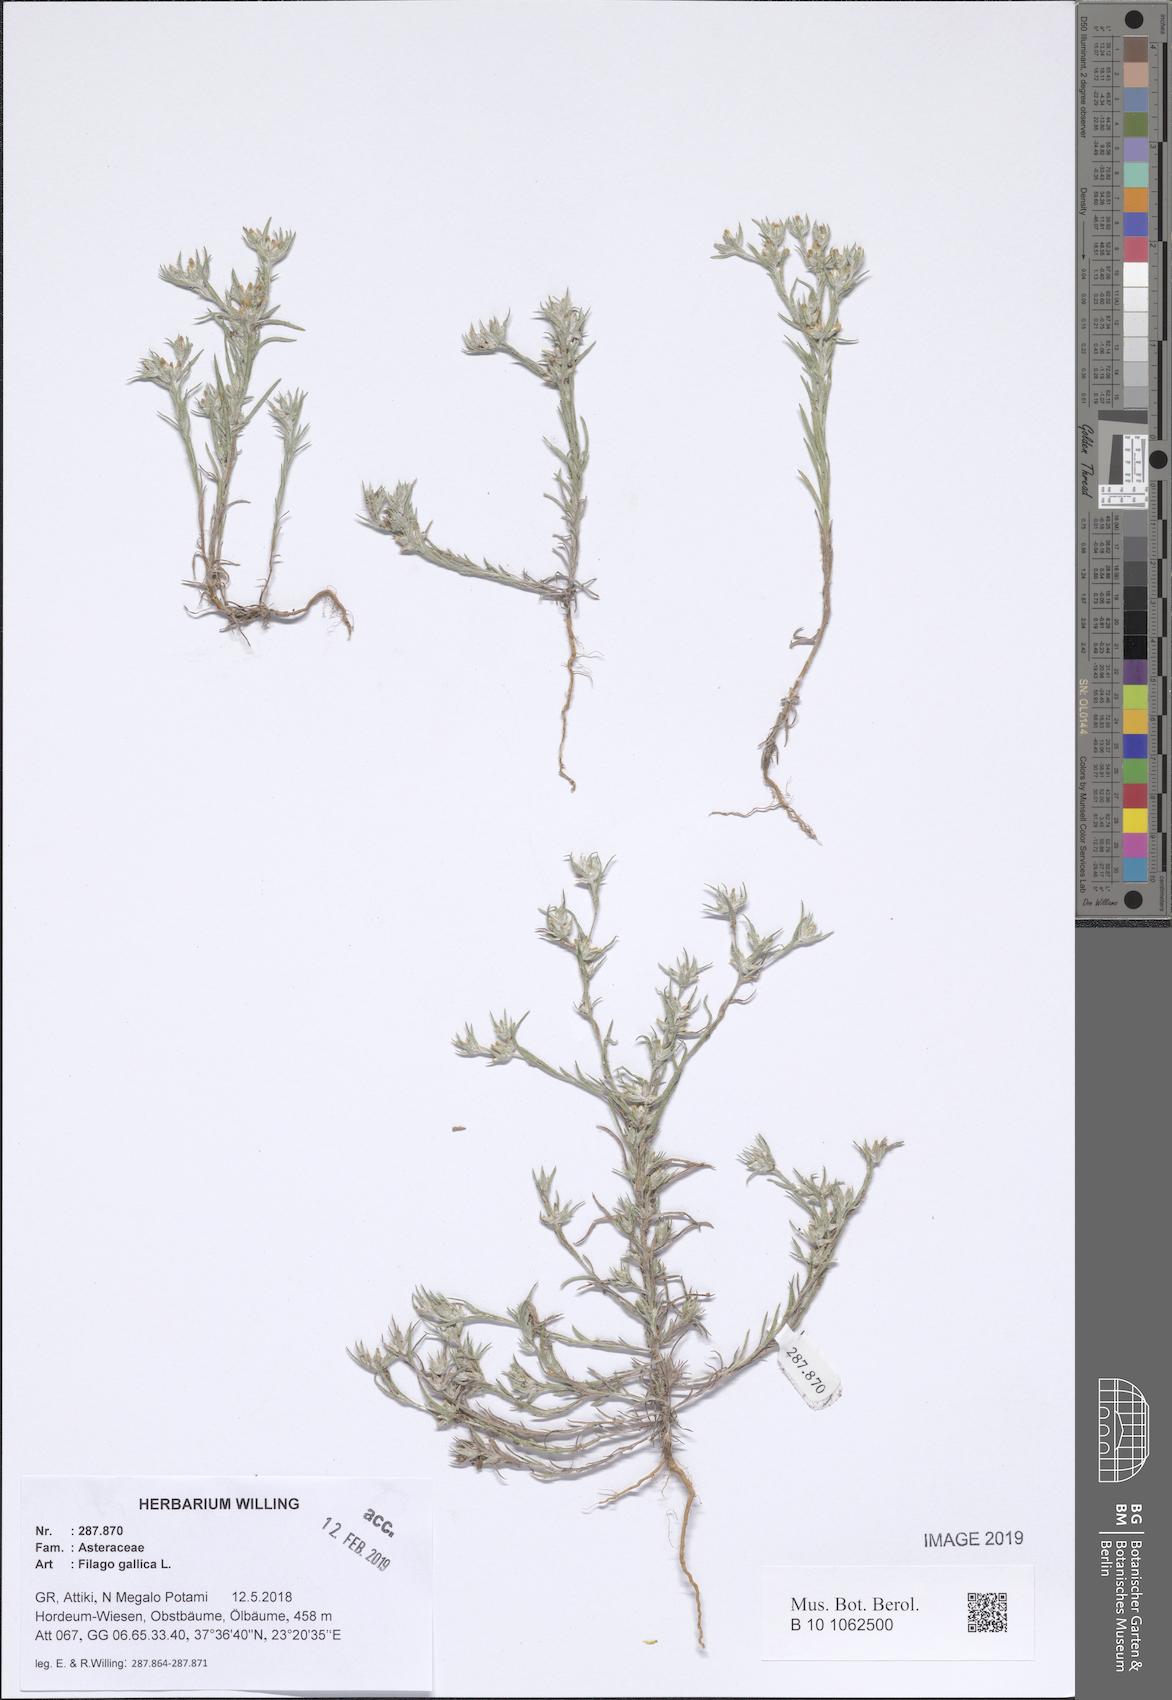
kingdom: Plantae
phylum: Tracheophyta
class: Magnoliopsida
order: Asterales
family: Asteraceae
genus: Logfia
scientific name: Logfia gallica
